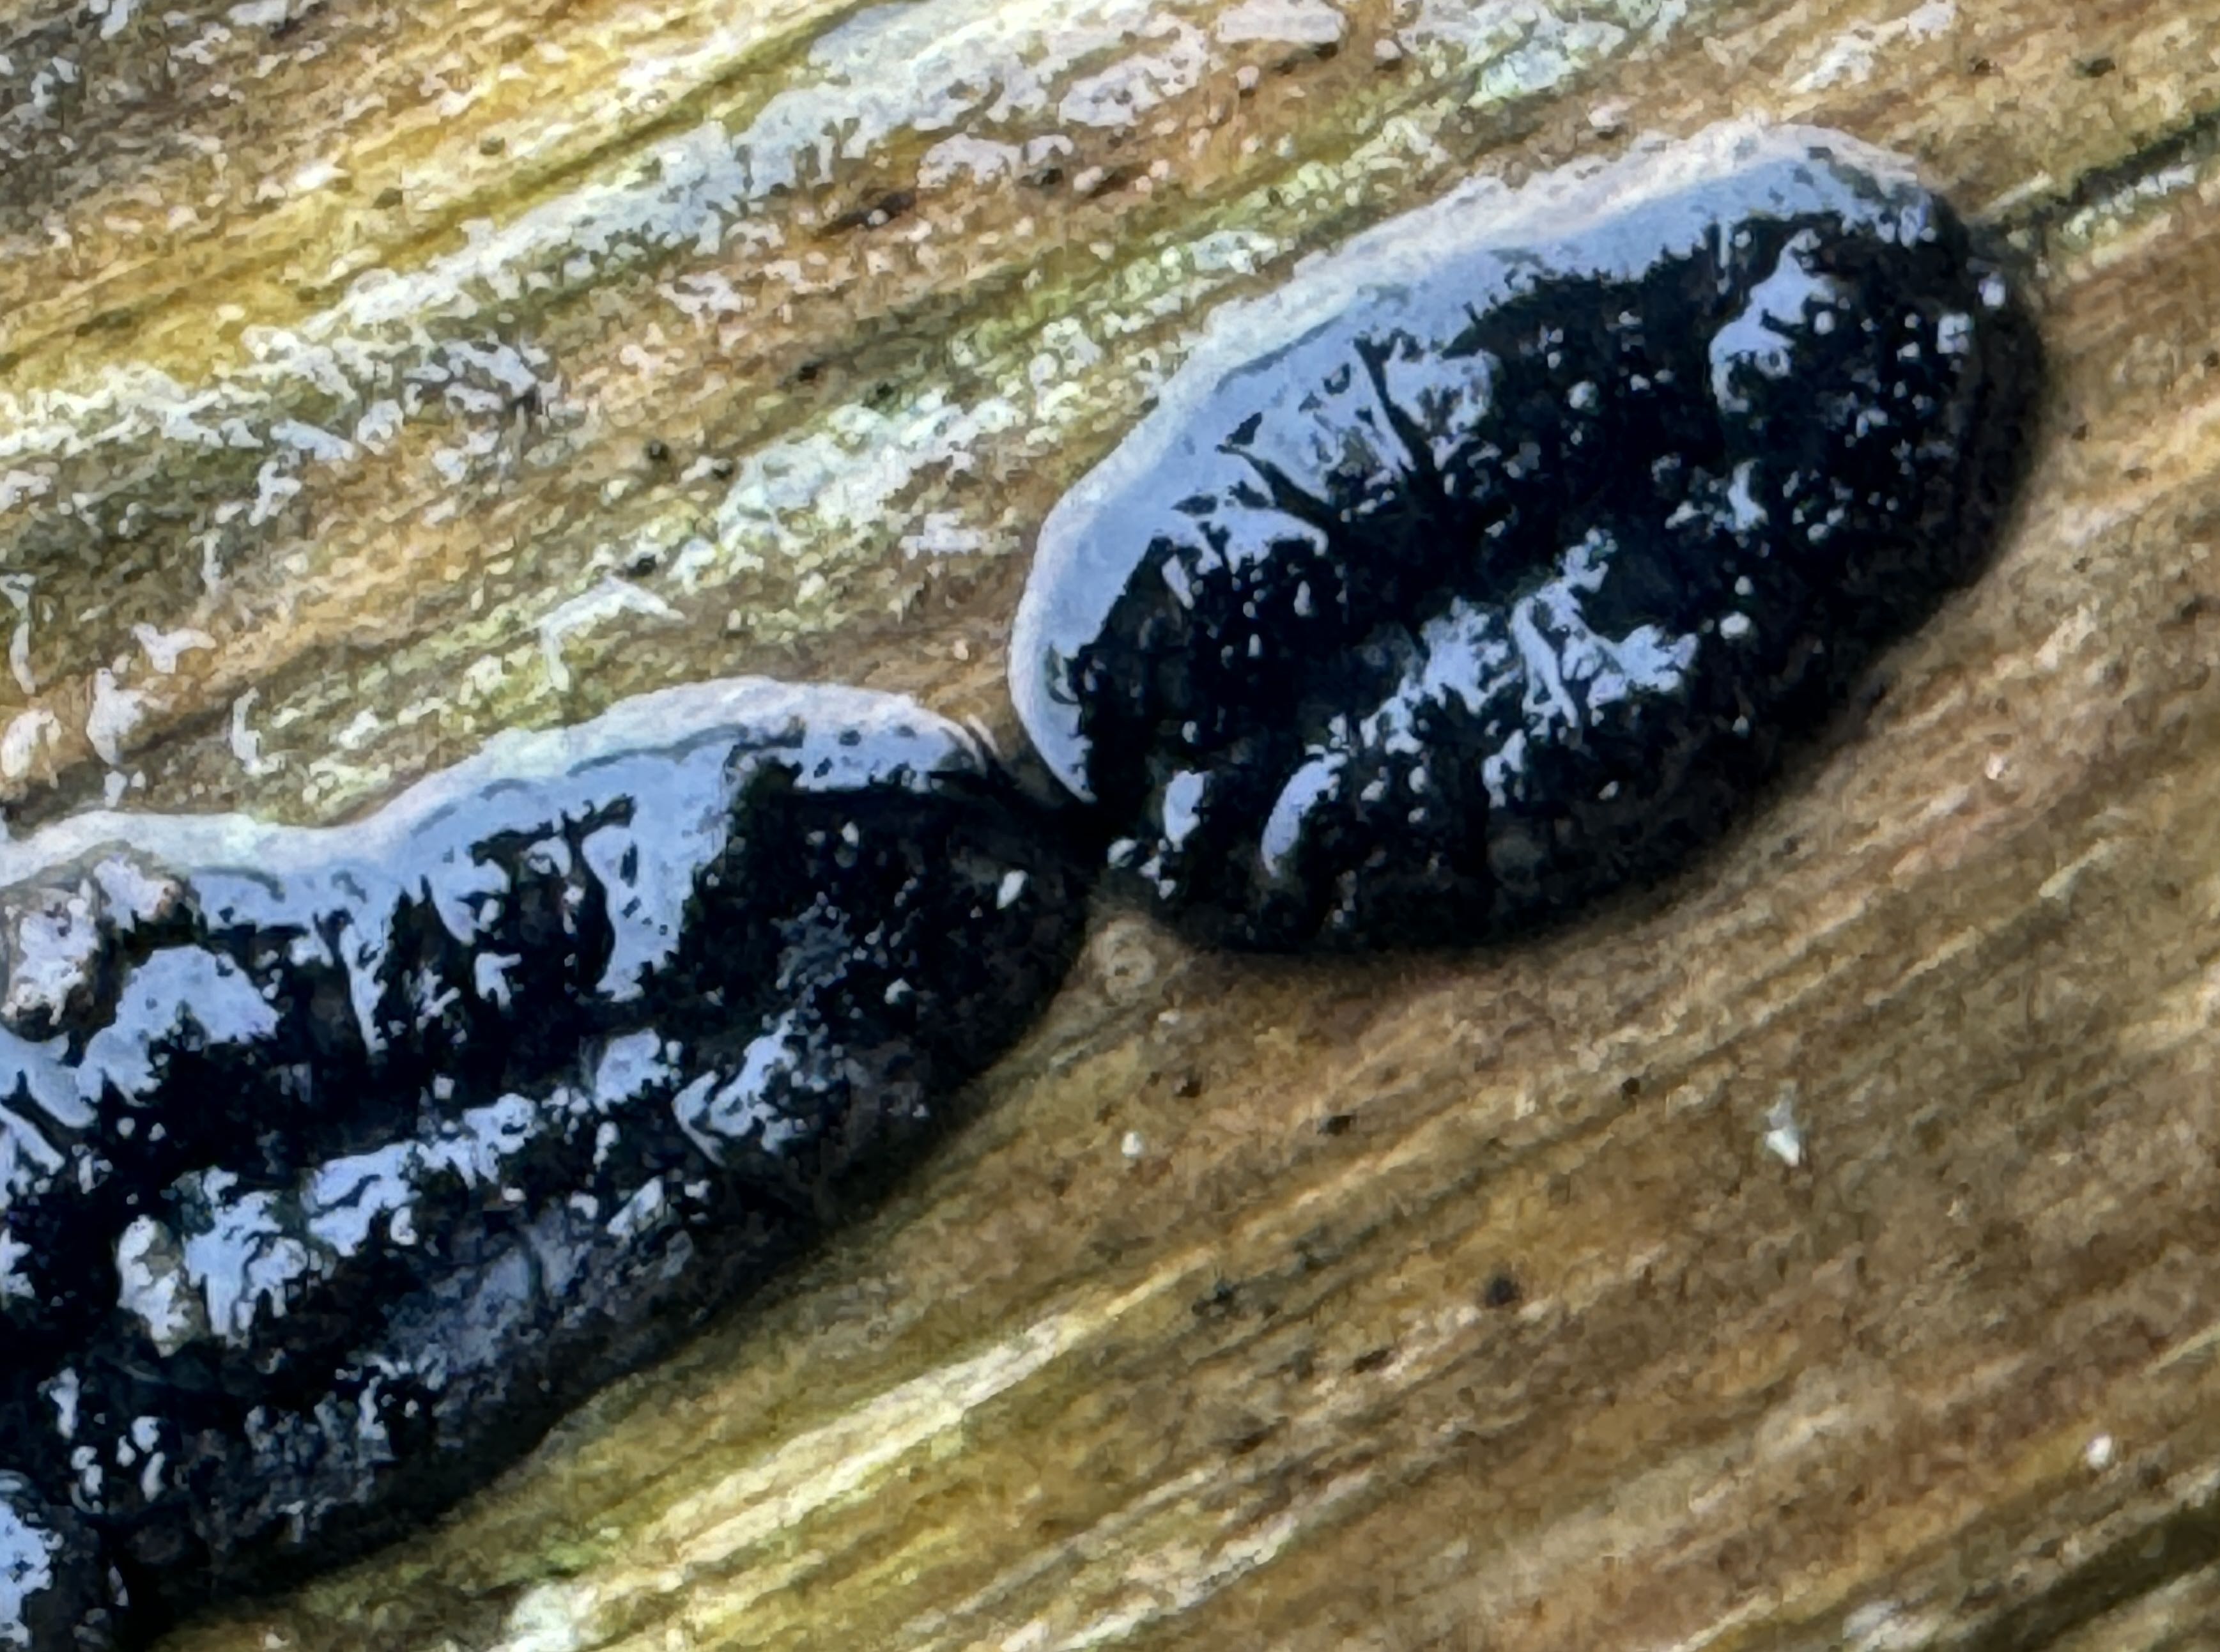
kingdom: Fungi
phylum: Ascomycota
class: Sordariomycetes
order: Xylariales
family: Xylariaceae
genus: Nemania
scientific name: Nemania
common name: kuldyne
